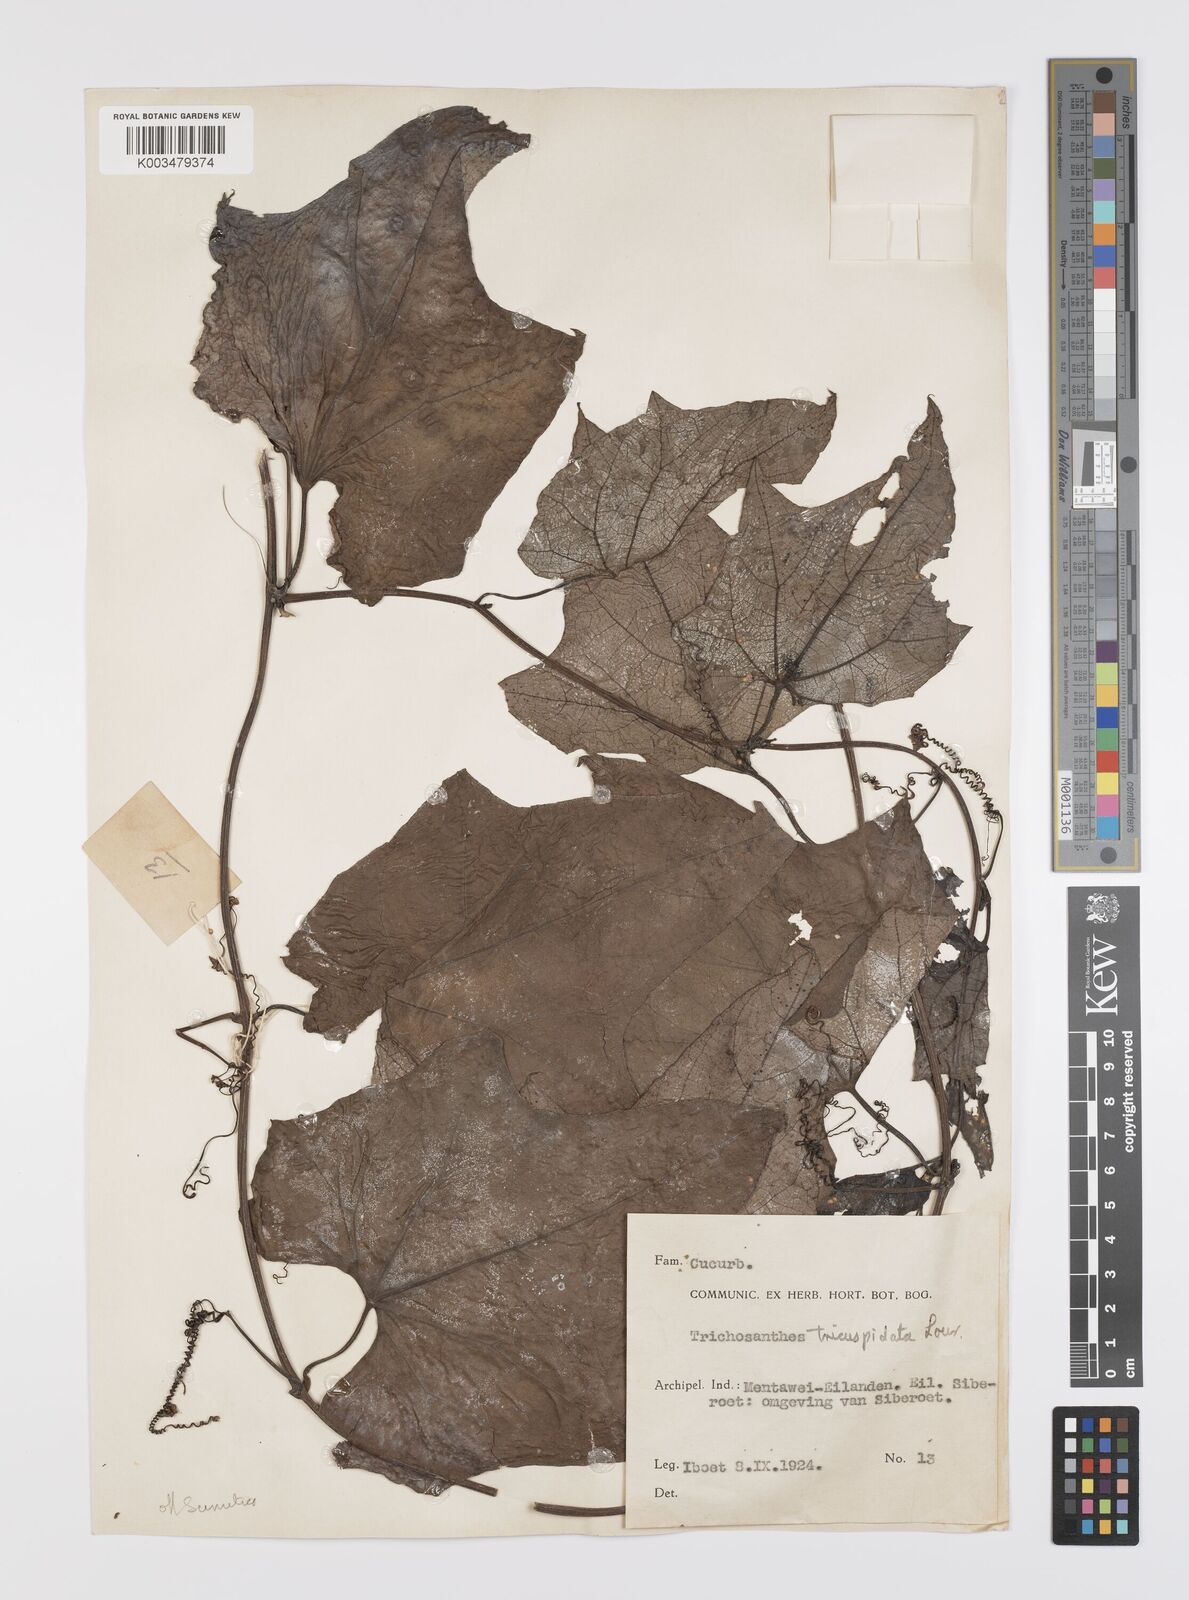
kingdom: Plantae
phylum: Tracheophyta
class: Magnoliopsida
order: Cucurbitales
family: Cucurbitaceae
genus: Trichosanthes
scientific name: Trichosanthes tricuspidata
